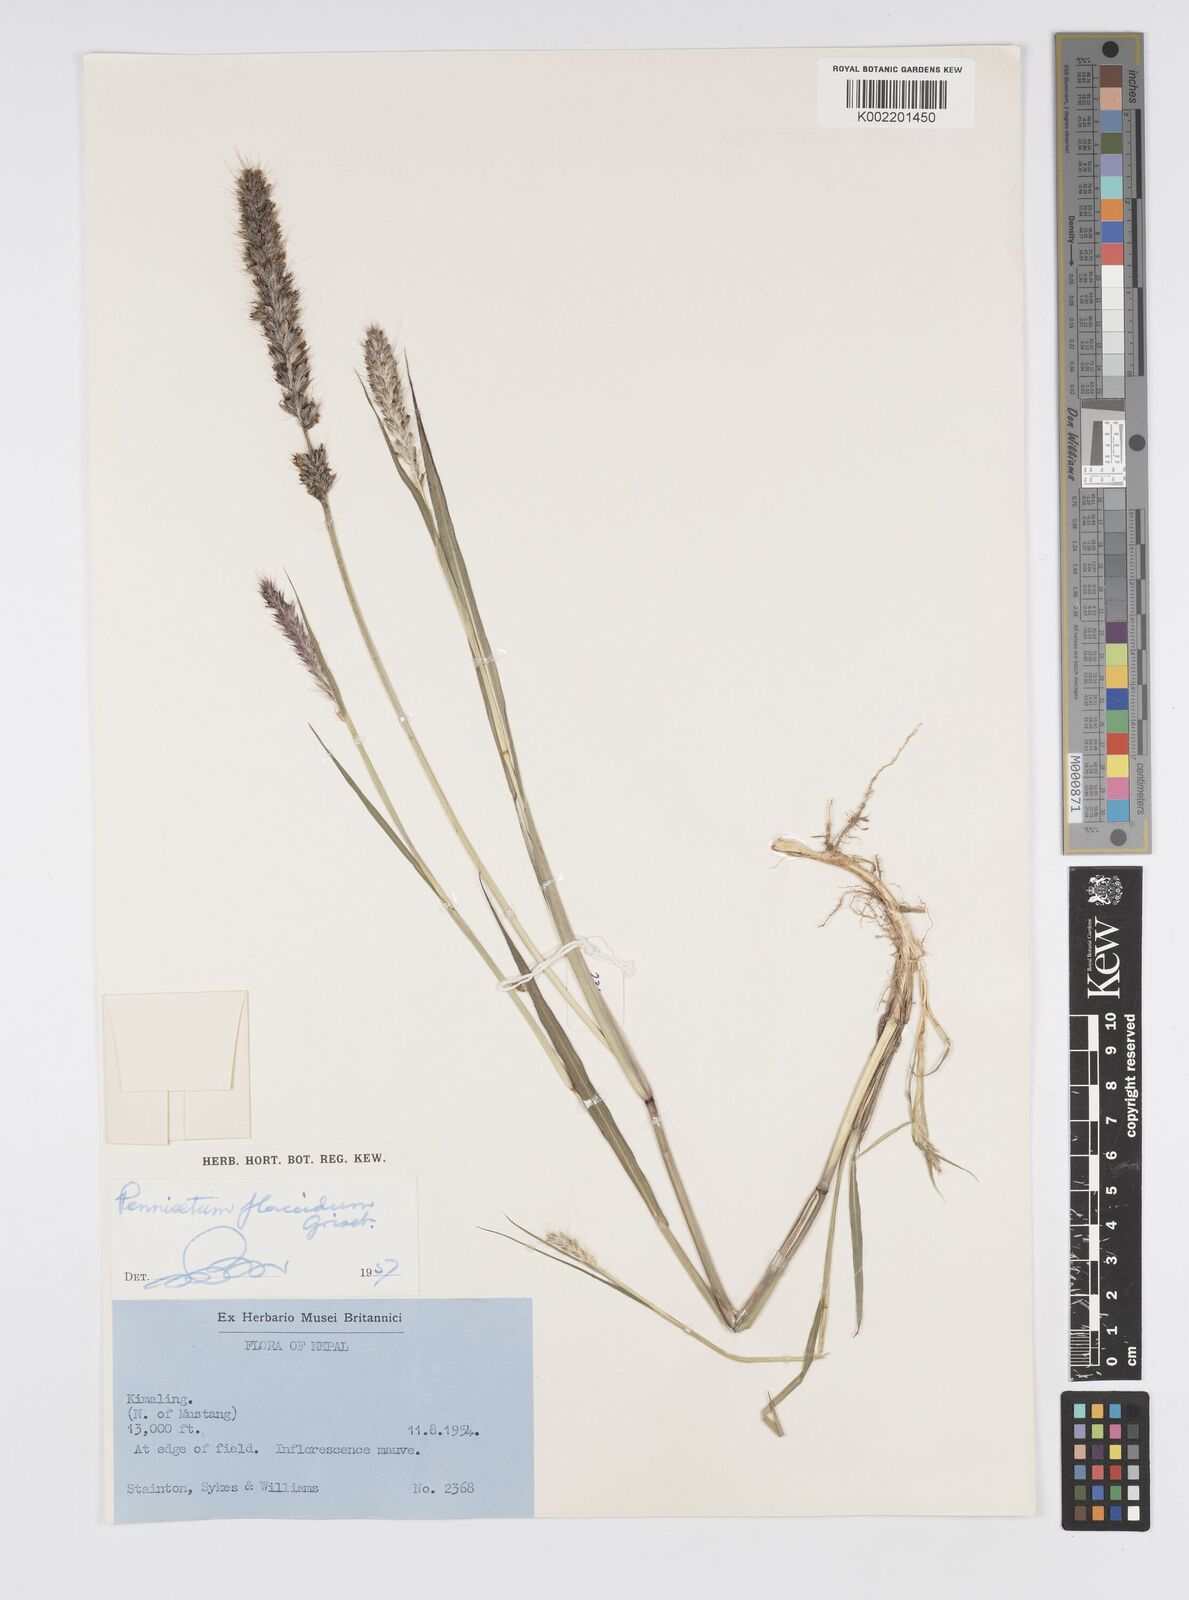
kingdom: Plantae
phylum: Tracheophyta
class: Liliopsida
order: Poales
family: Poaceae
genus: Cenchrus
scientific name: Cenchrus flaccidus
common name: Flaccid grass
